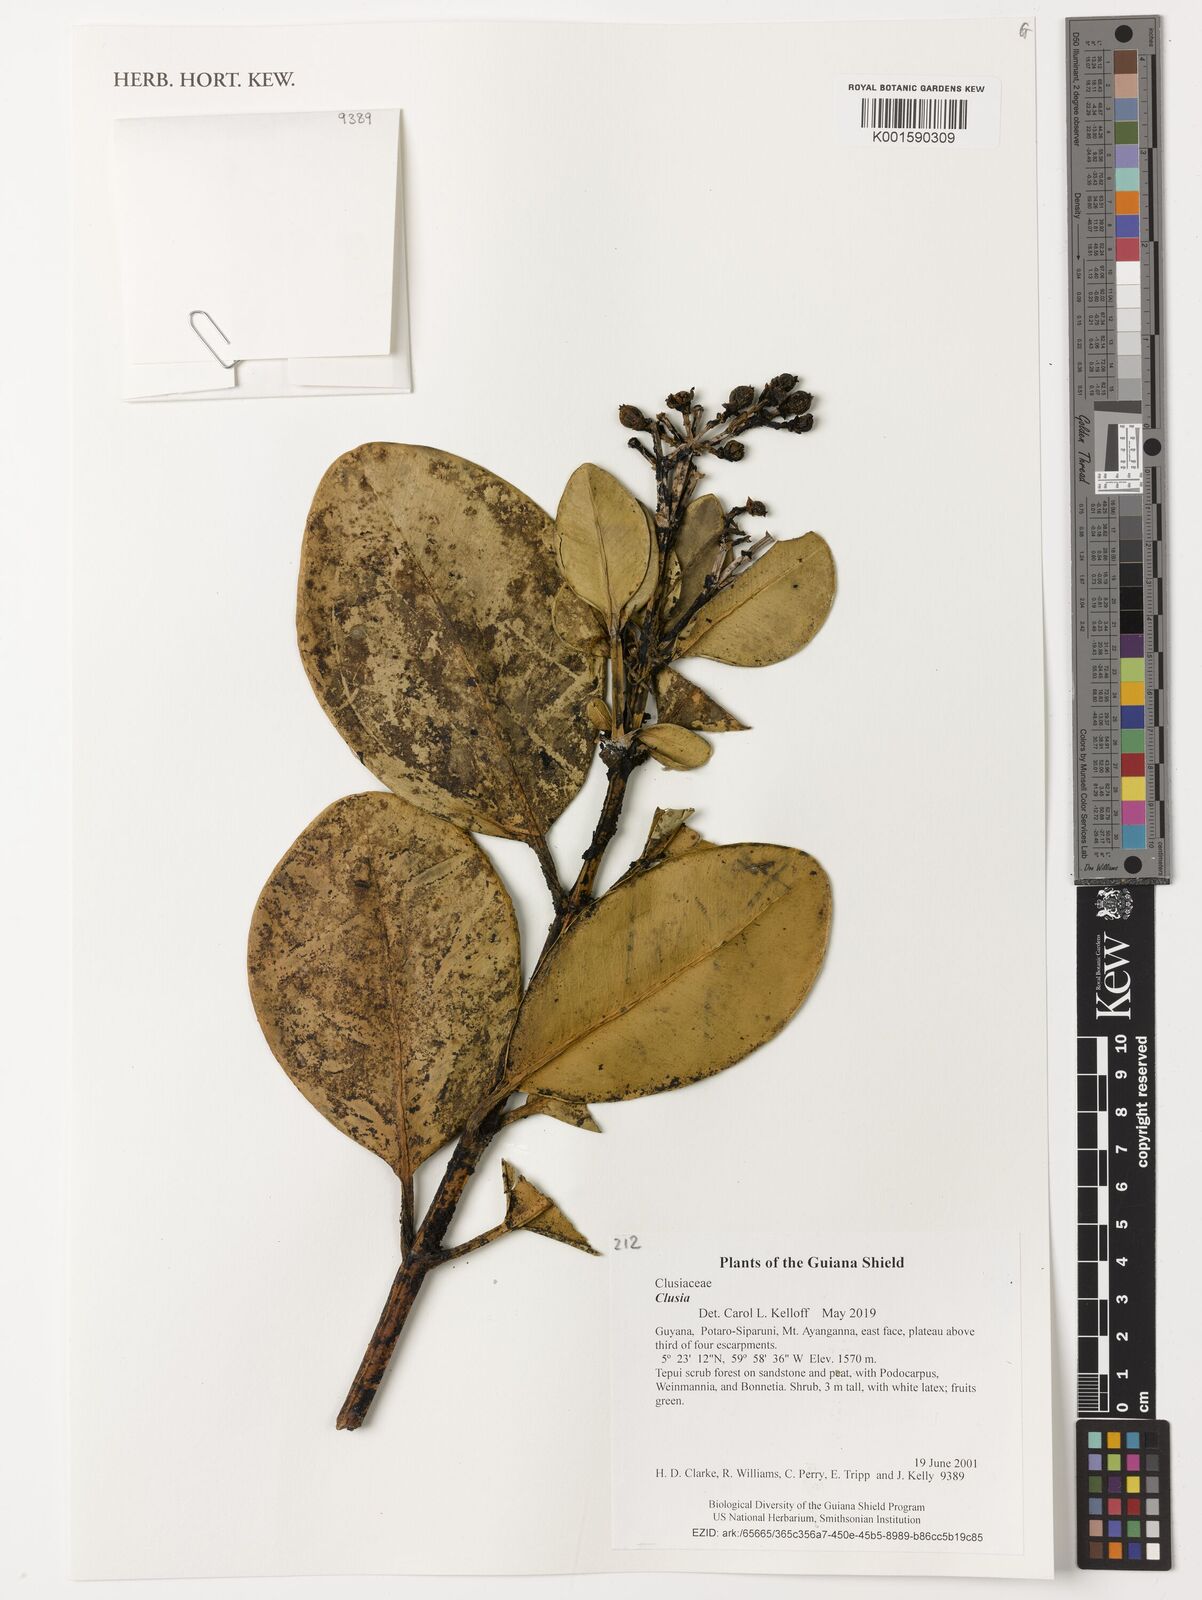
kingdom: Plantae
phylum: Tracheophyta
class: Magnoliopsida
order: Malpighiales
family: Clusiaceae
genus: Clusia
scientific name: Clusia
